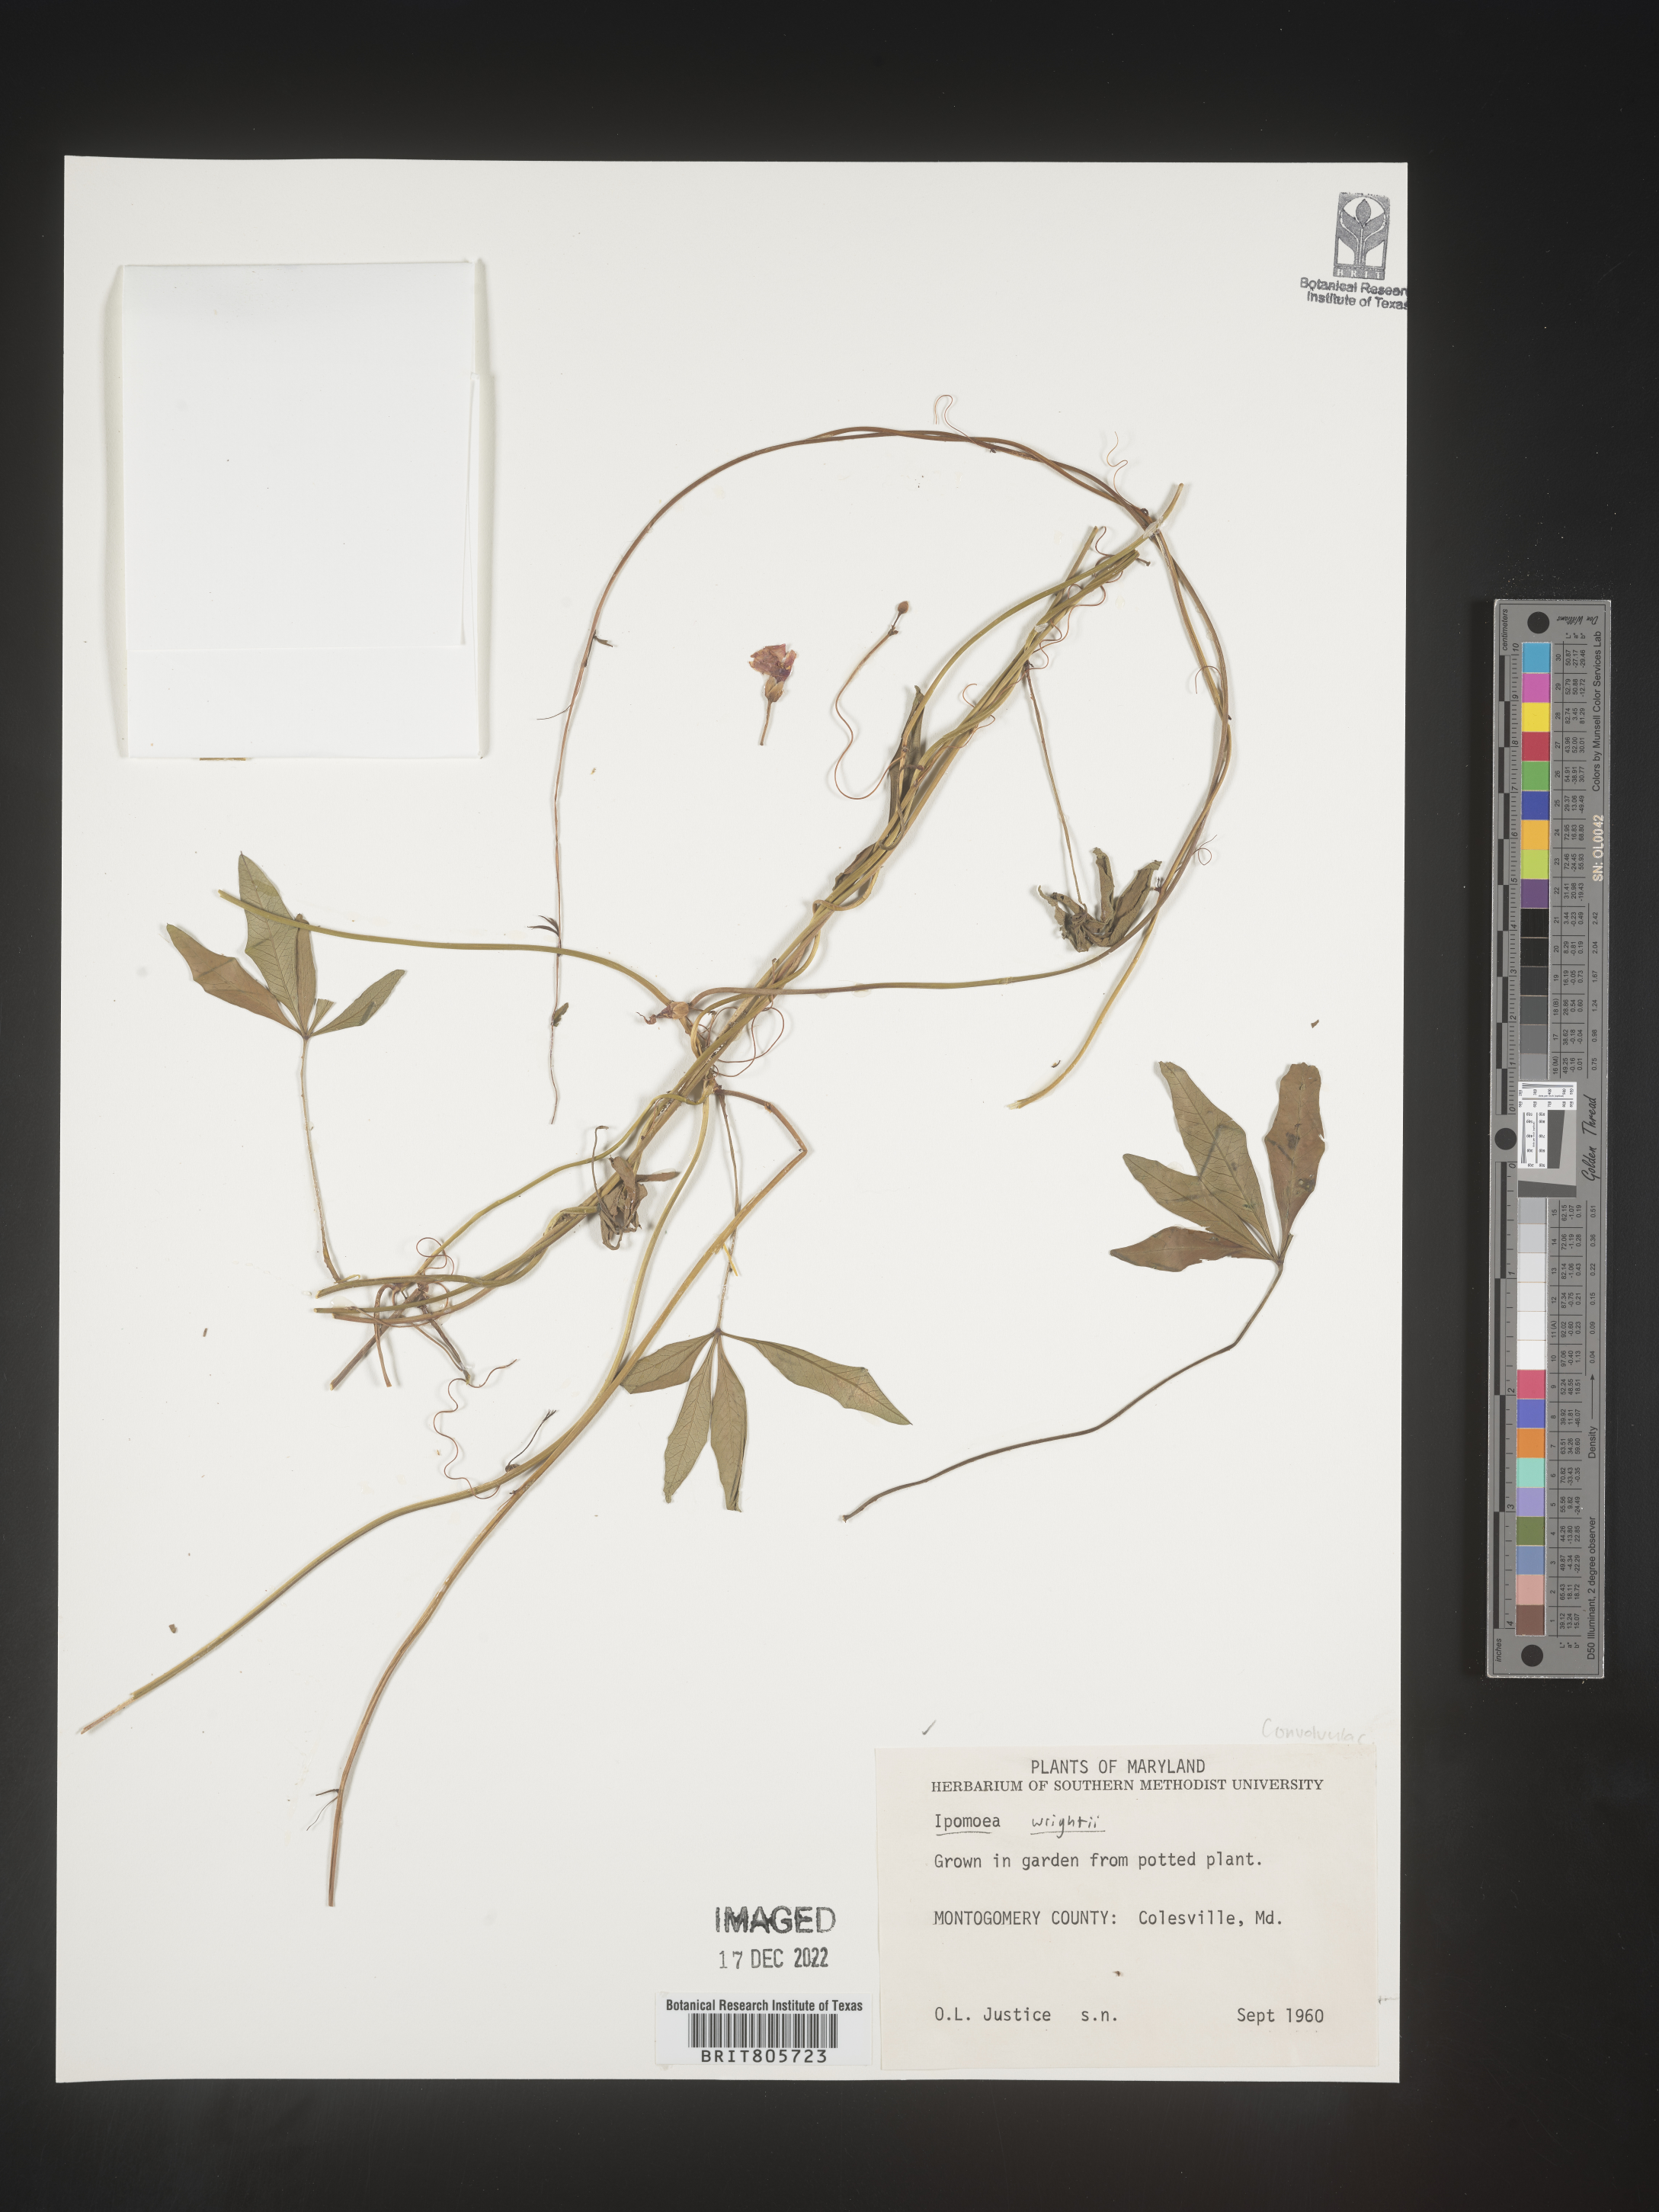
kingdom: Plantae
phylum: Tracheophyta
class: Magnoliopsida
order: Solanales
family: Convolvulaceae
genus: Ipomoea
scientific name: Ipomoea
